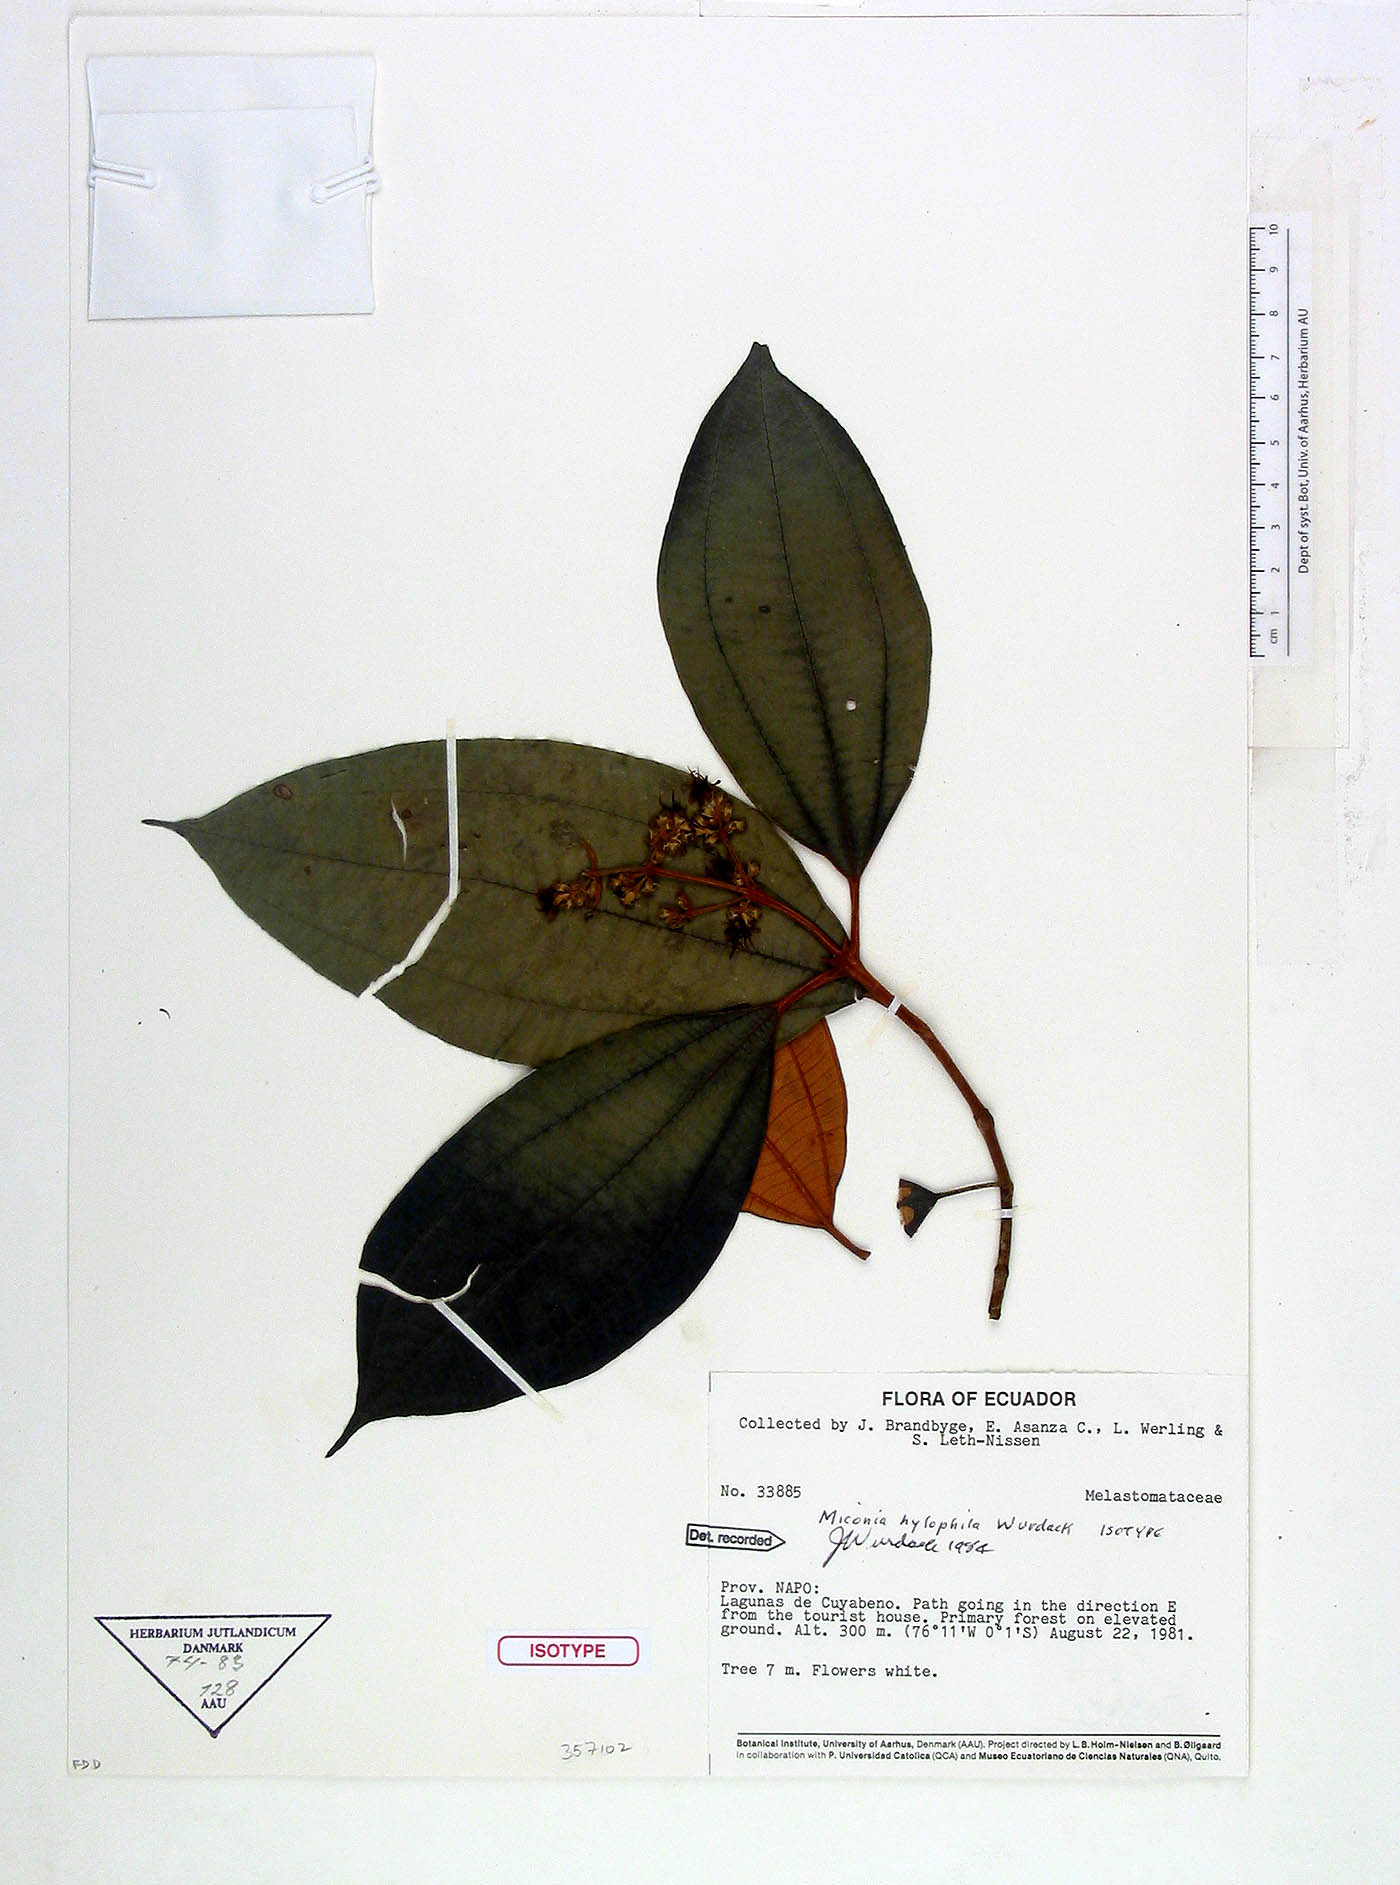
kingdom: Plantae
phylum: Tracheophyta
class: Magnoliopsida
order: Myrtales
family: Melastomataceae
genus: Miconia
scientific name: Miconia hylophila
